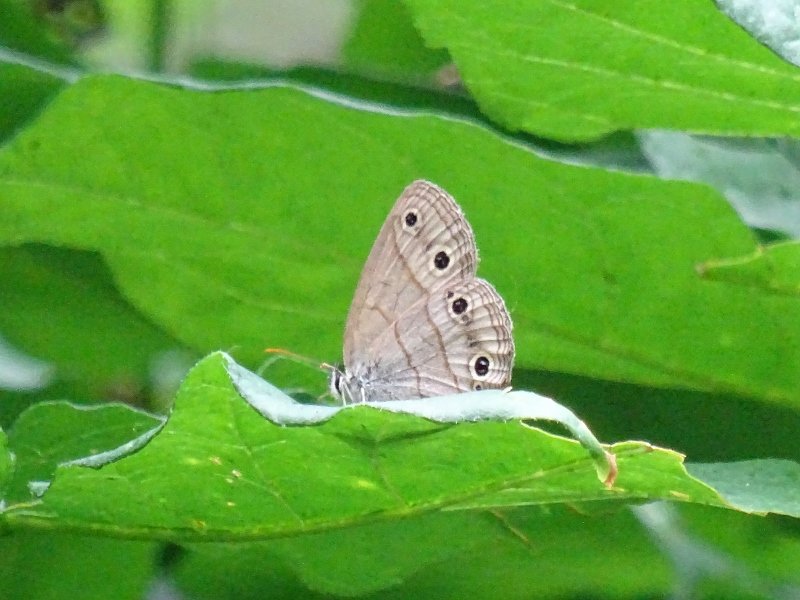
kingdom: Animalia
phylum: Arthropoda
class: Insecta
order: Lepidoptera
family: Nymphalidae
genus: Euptychia
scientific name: Euptychia cymela
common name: Little Wood Satyr
